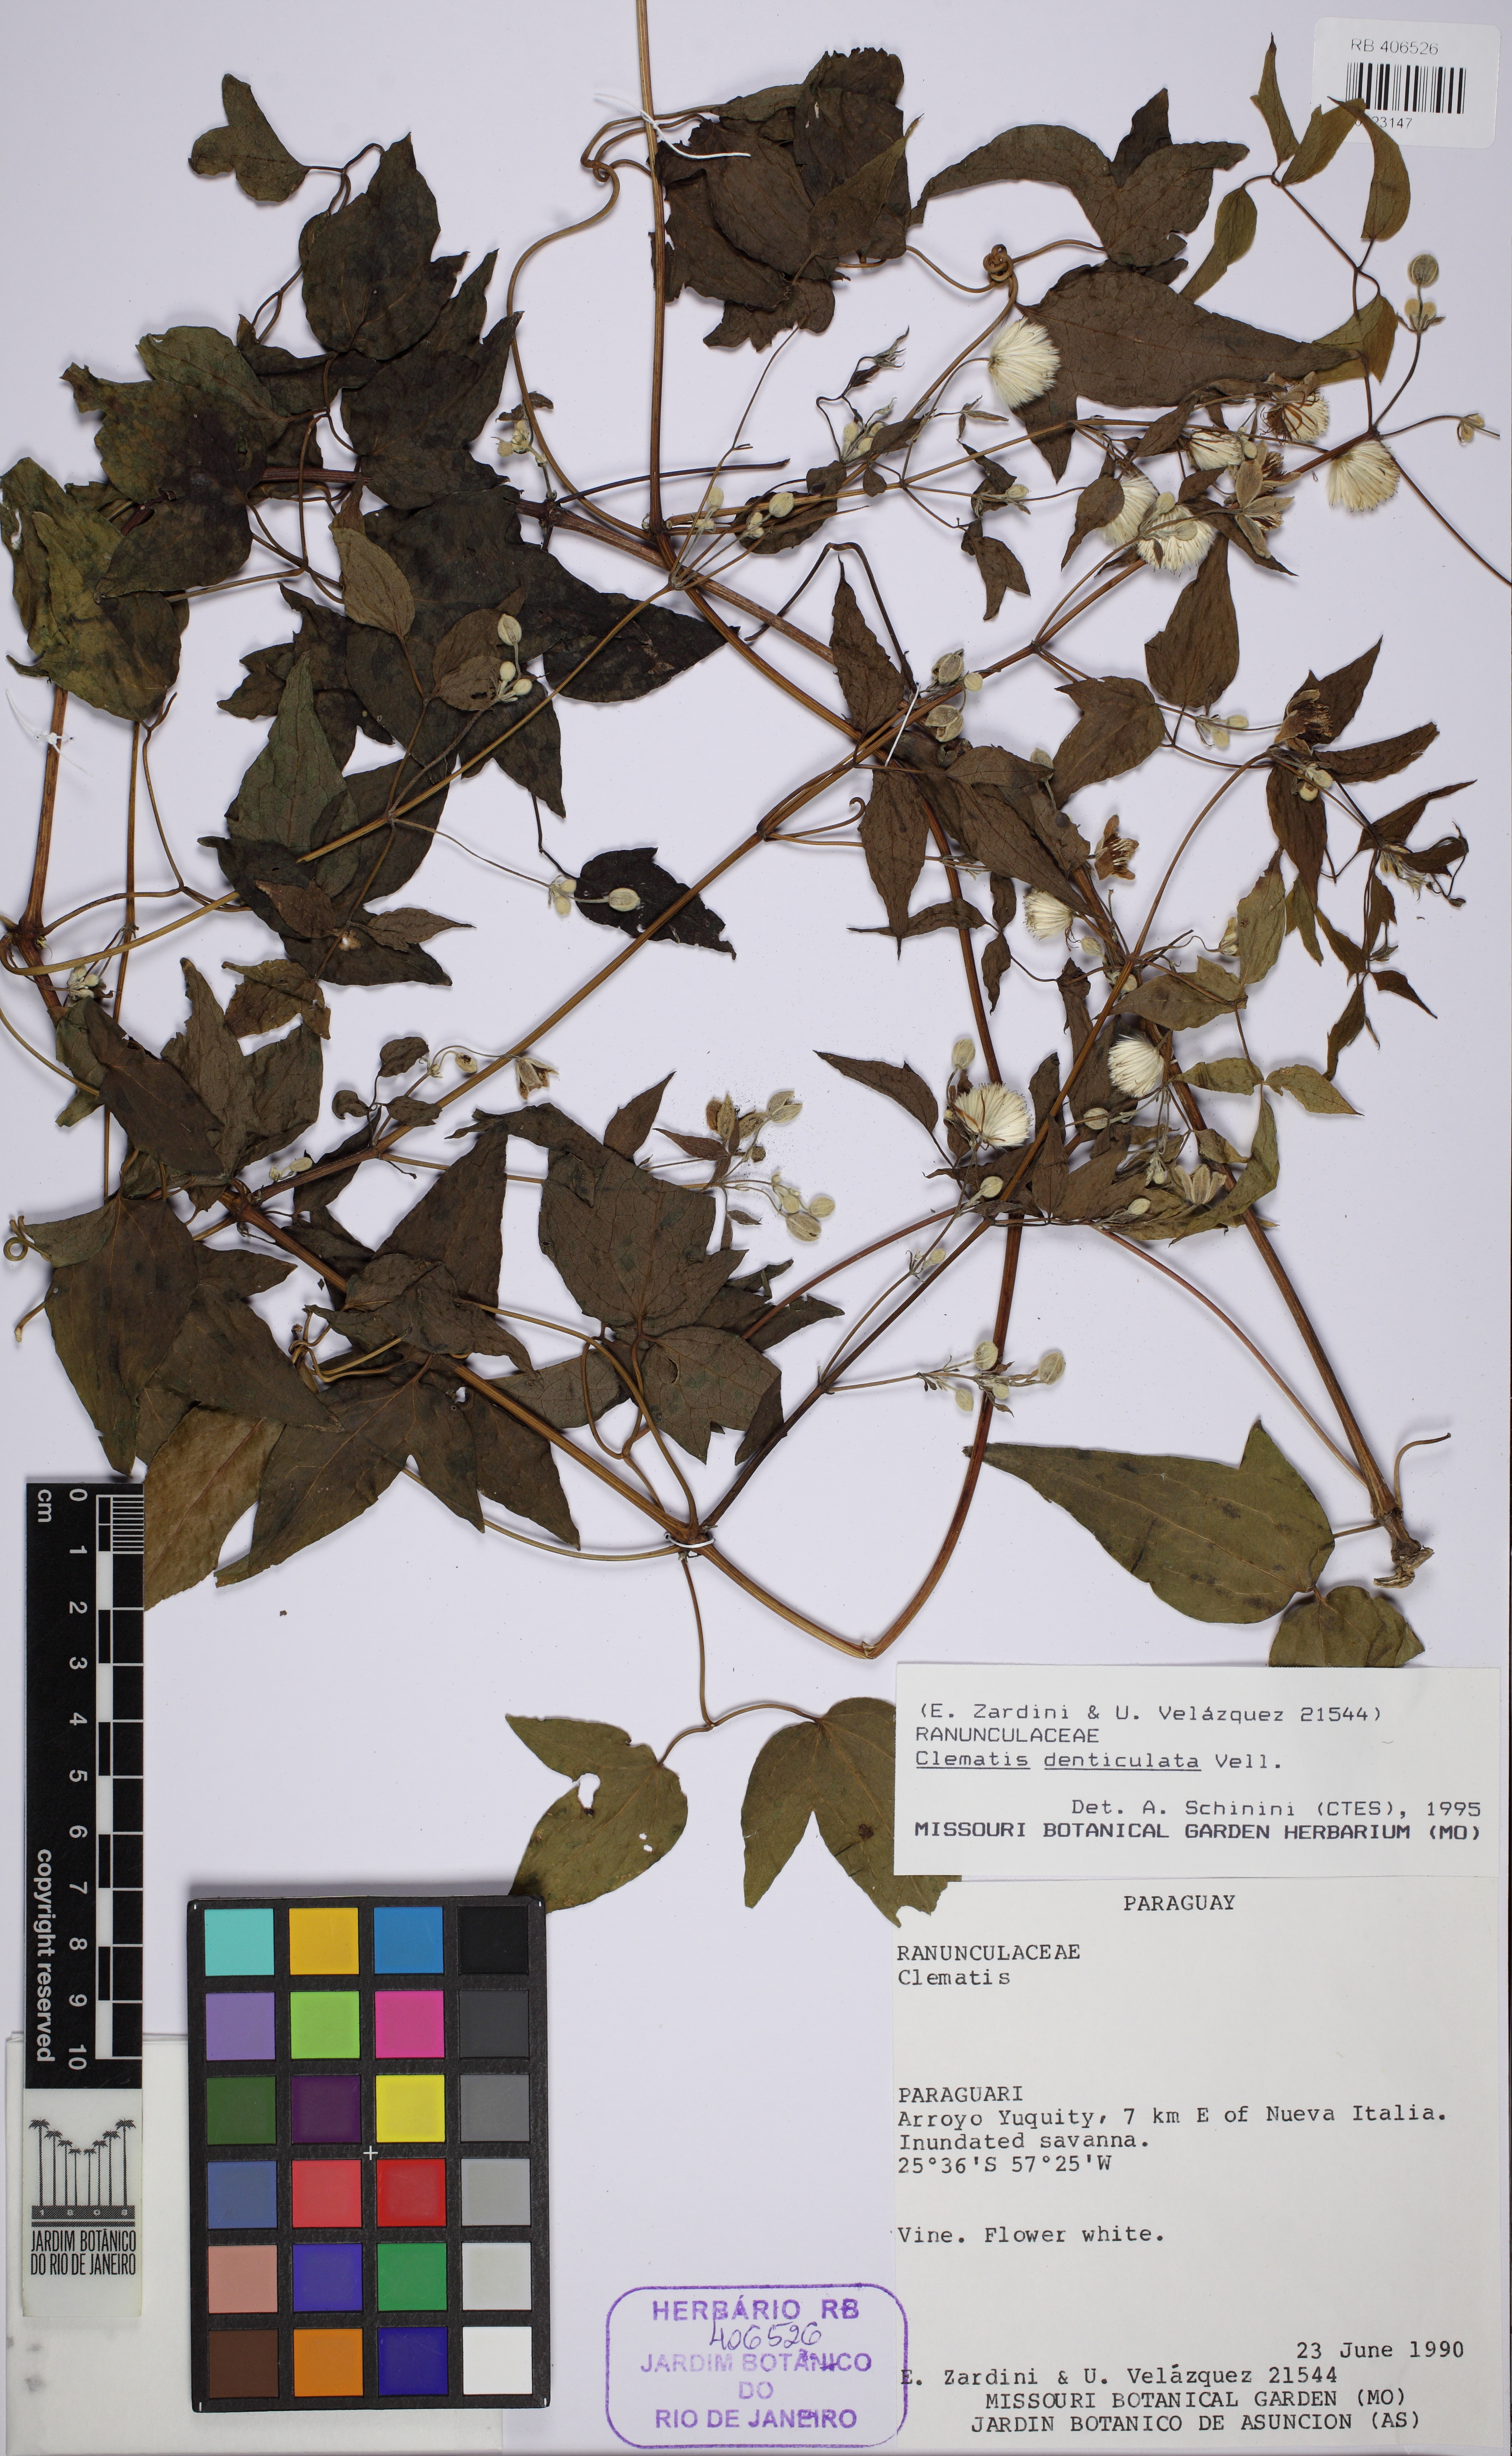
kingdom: Plantae
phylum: Tracheophyta
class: Magnoliopsida
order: Ranunculales
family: Ranunculaceae
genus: Clematis
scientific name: Clematis campestris
